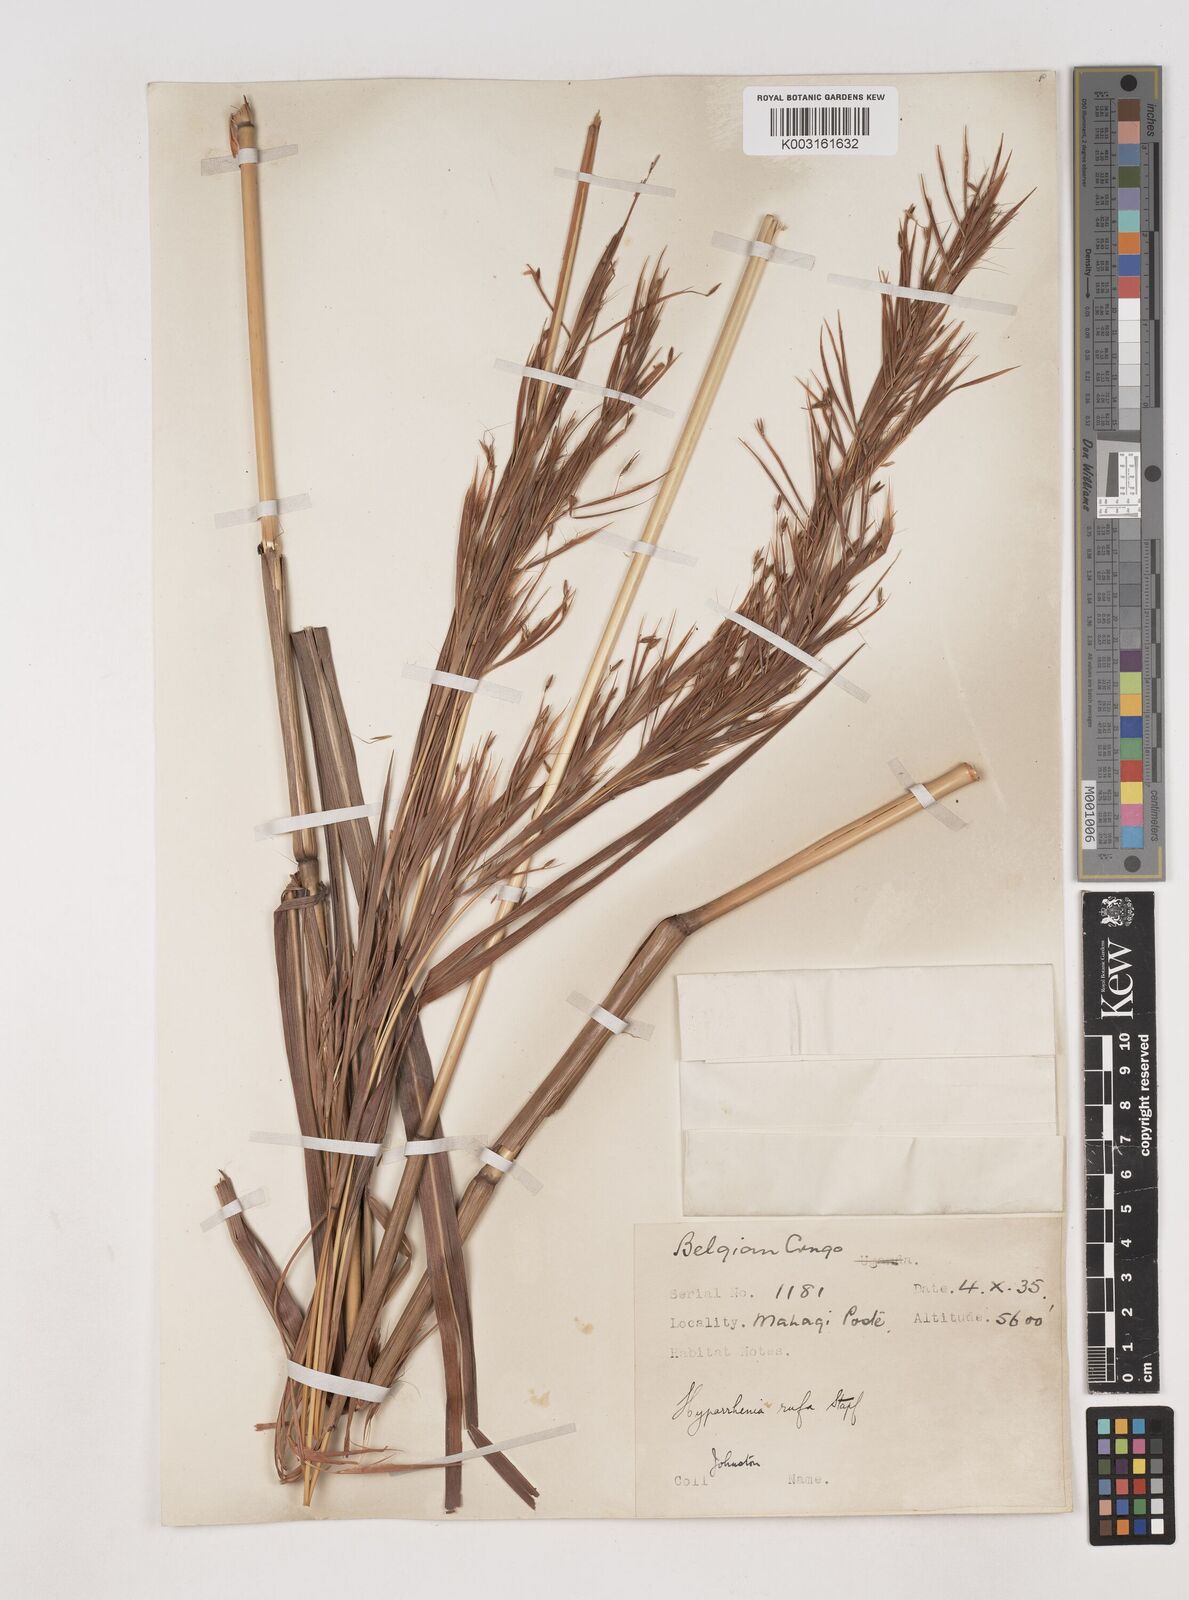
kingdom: Plantae
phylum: Tracheophyta
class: Liliopsida
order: Poales
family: Poaceae
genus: Hyparrhenia
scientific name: Hyparrhenia rufa
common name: Jaraguagrass
